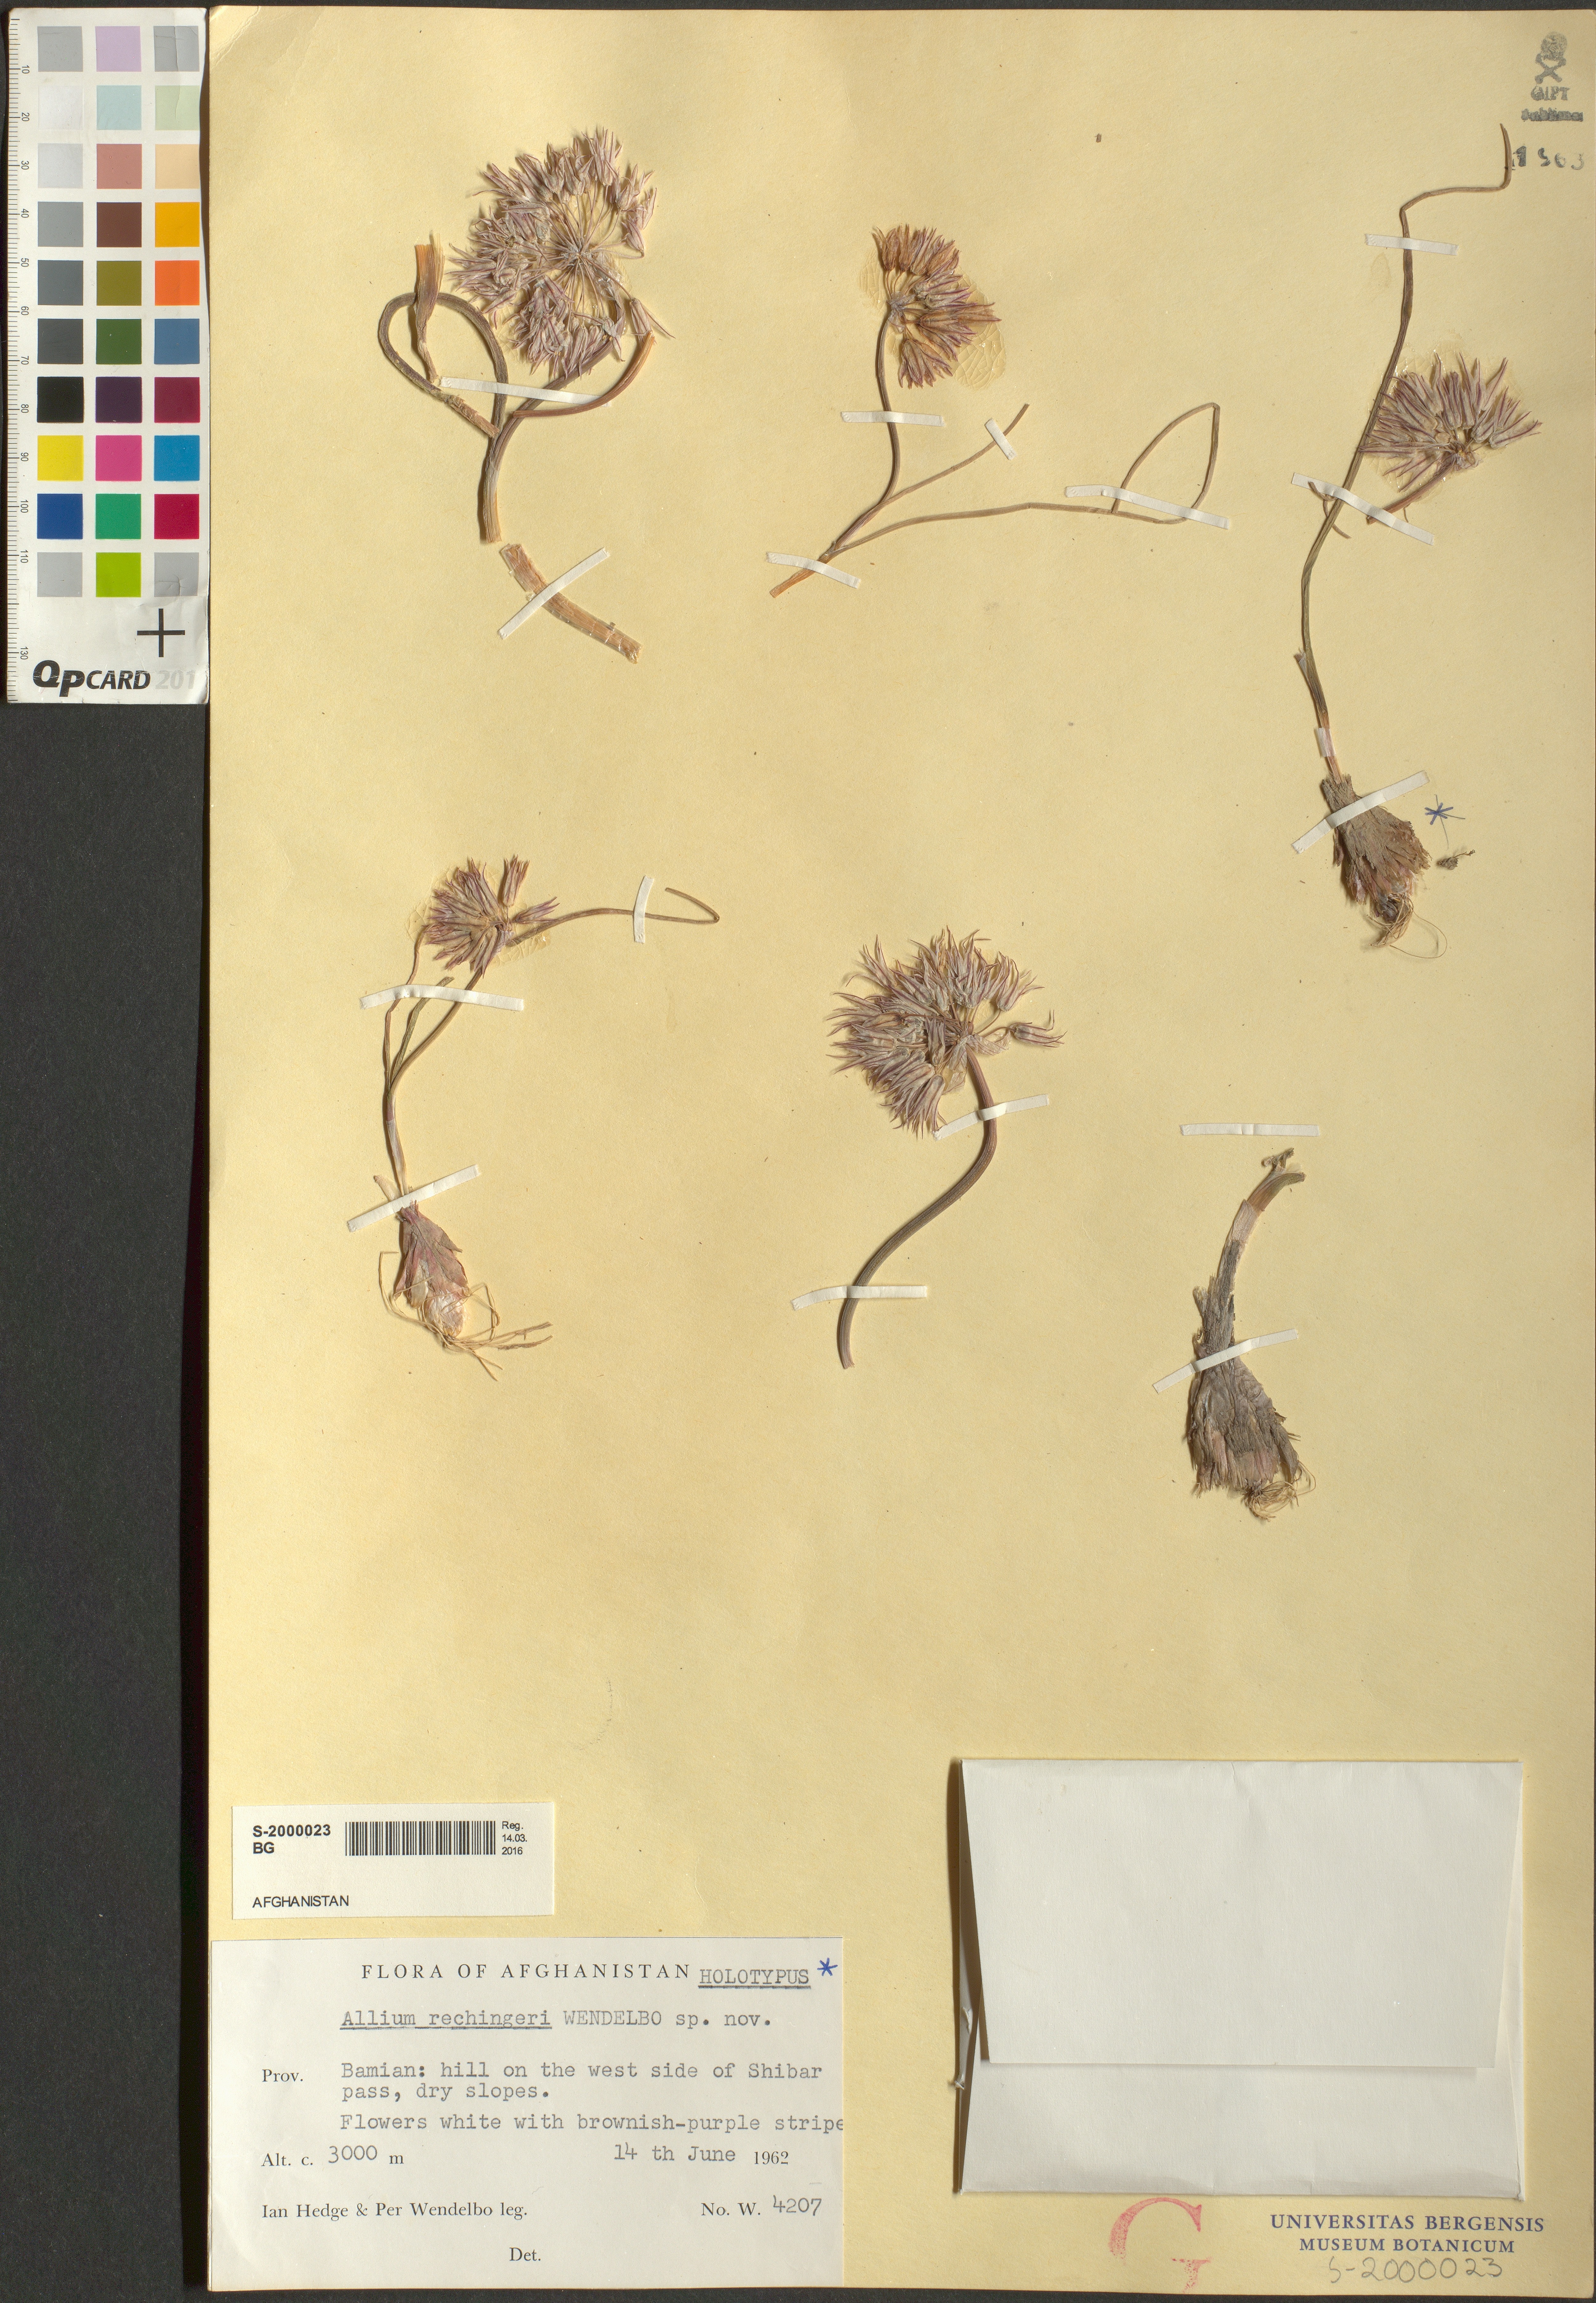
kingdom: Plantae
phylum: Tracheophyta
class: Liliopsida
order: Asparagales
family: Amaryllidaceae
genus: Allium
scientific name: Allium rechingeri
